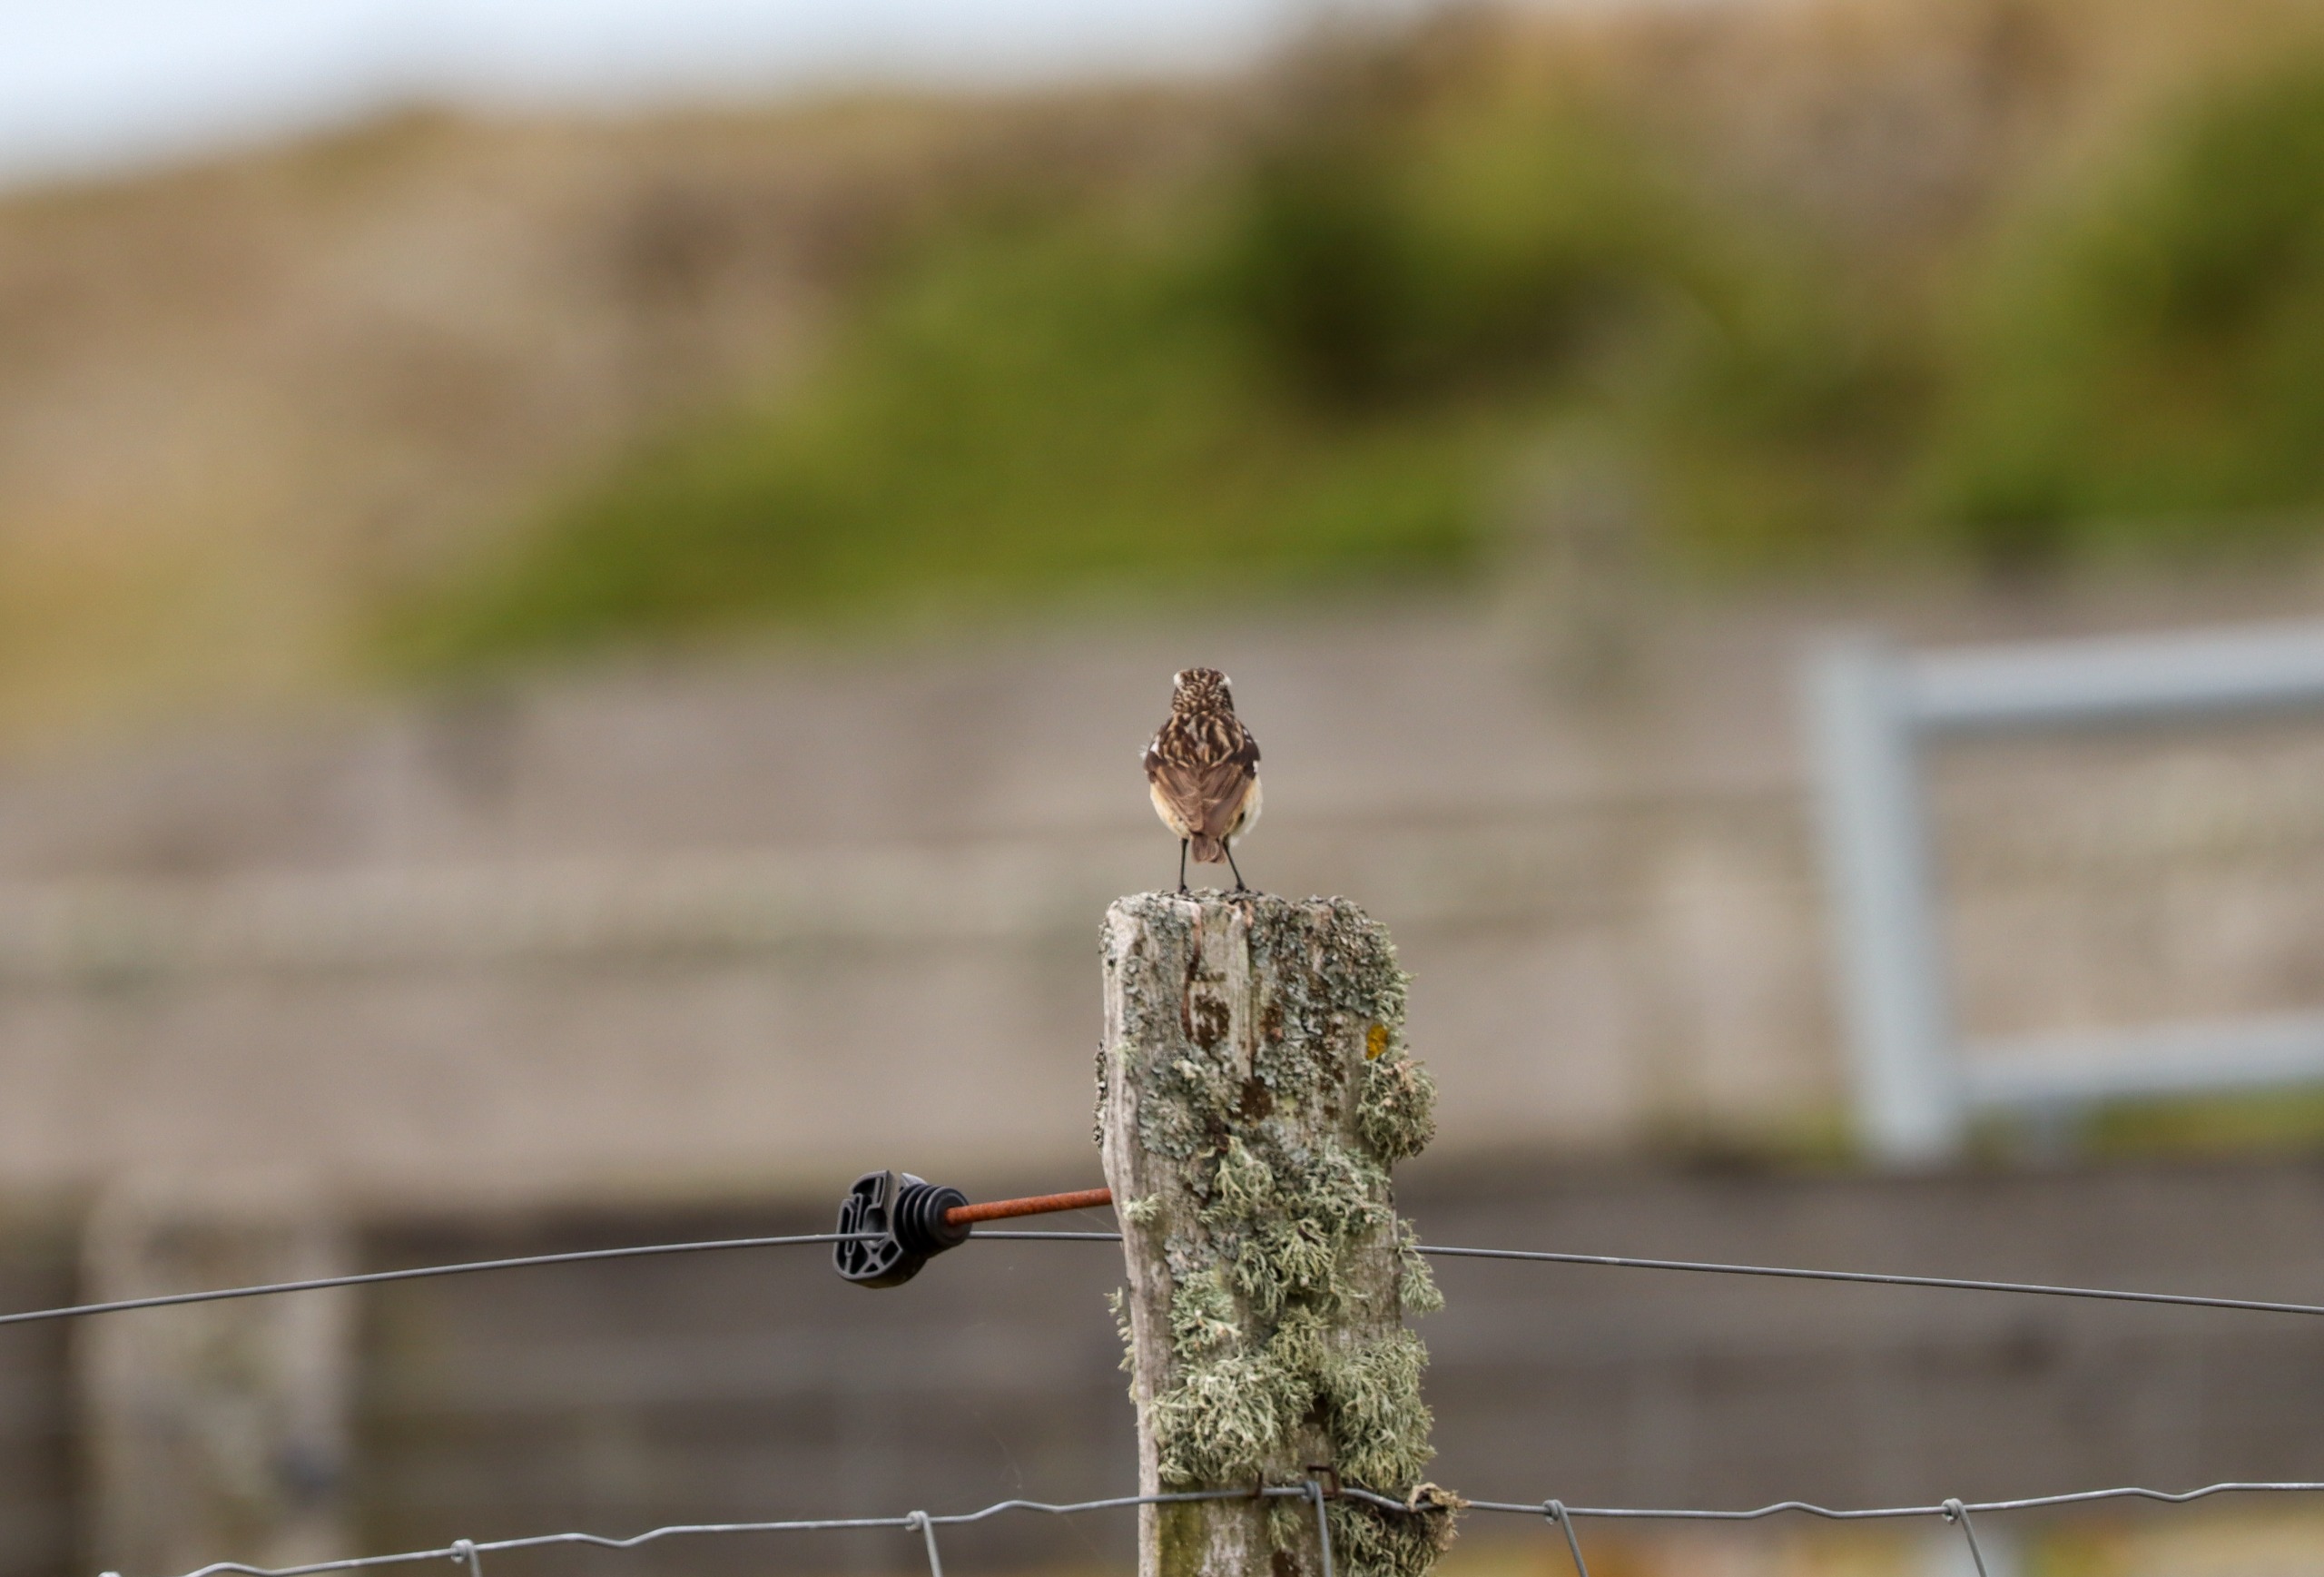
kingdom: Animalia
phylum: Chordata
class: Aves
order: Passeriformes
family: Muscicapidae
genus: Saxicola
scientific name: Saxicola rubetra
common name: Bynkefugl
